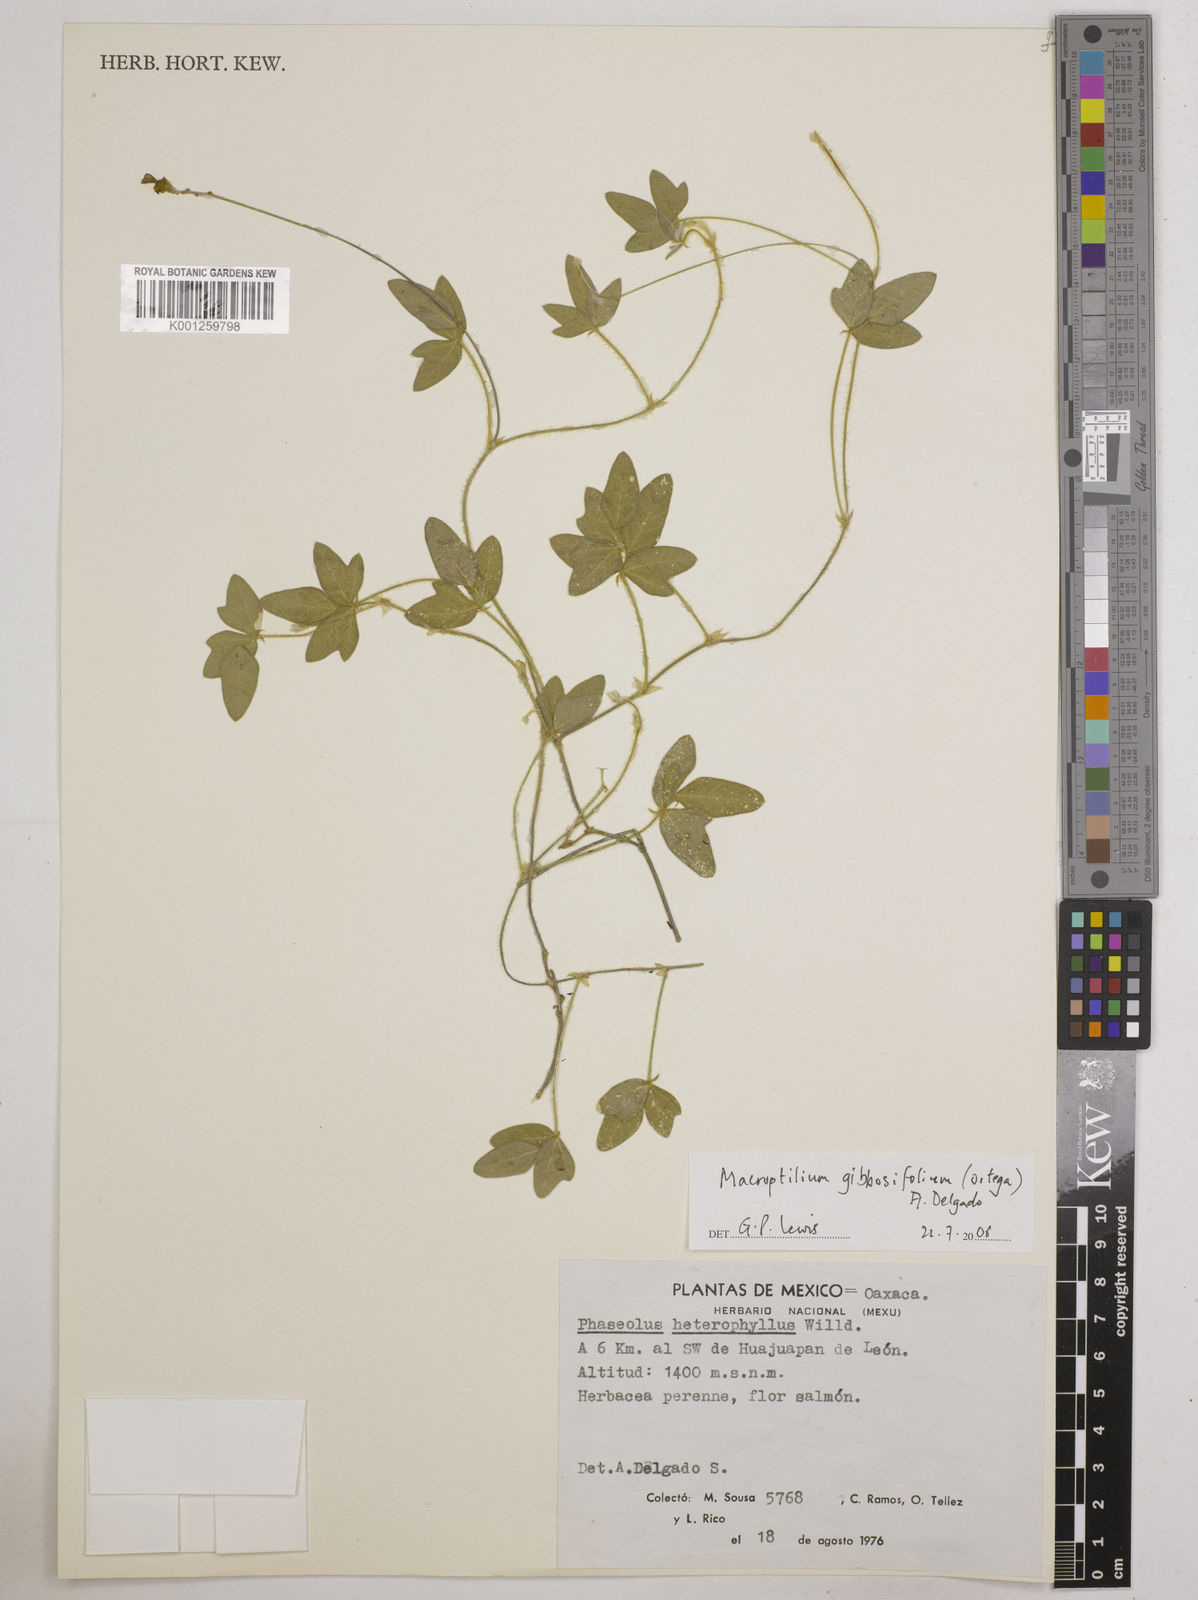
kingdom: Plantae
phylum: Tracheophyta
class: Magnoliopsida
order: Fabales
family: Fabaceae
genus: Macroptilium
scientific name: Macroptilium gibbosifolium
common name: Variableleaf bushbean
